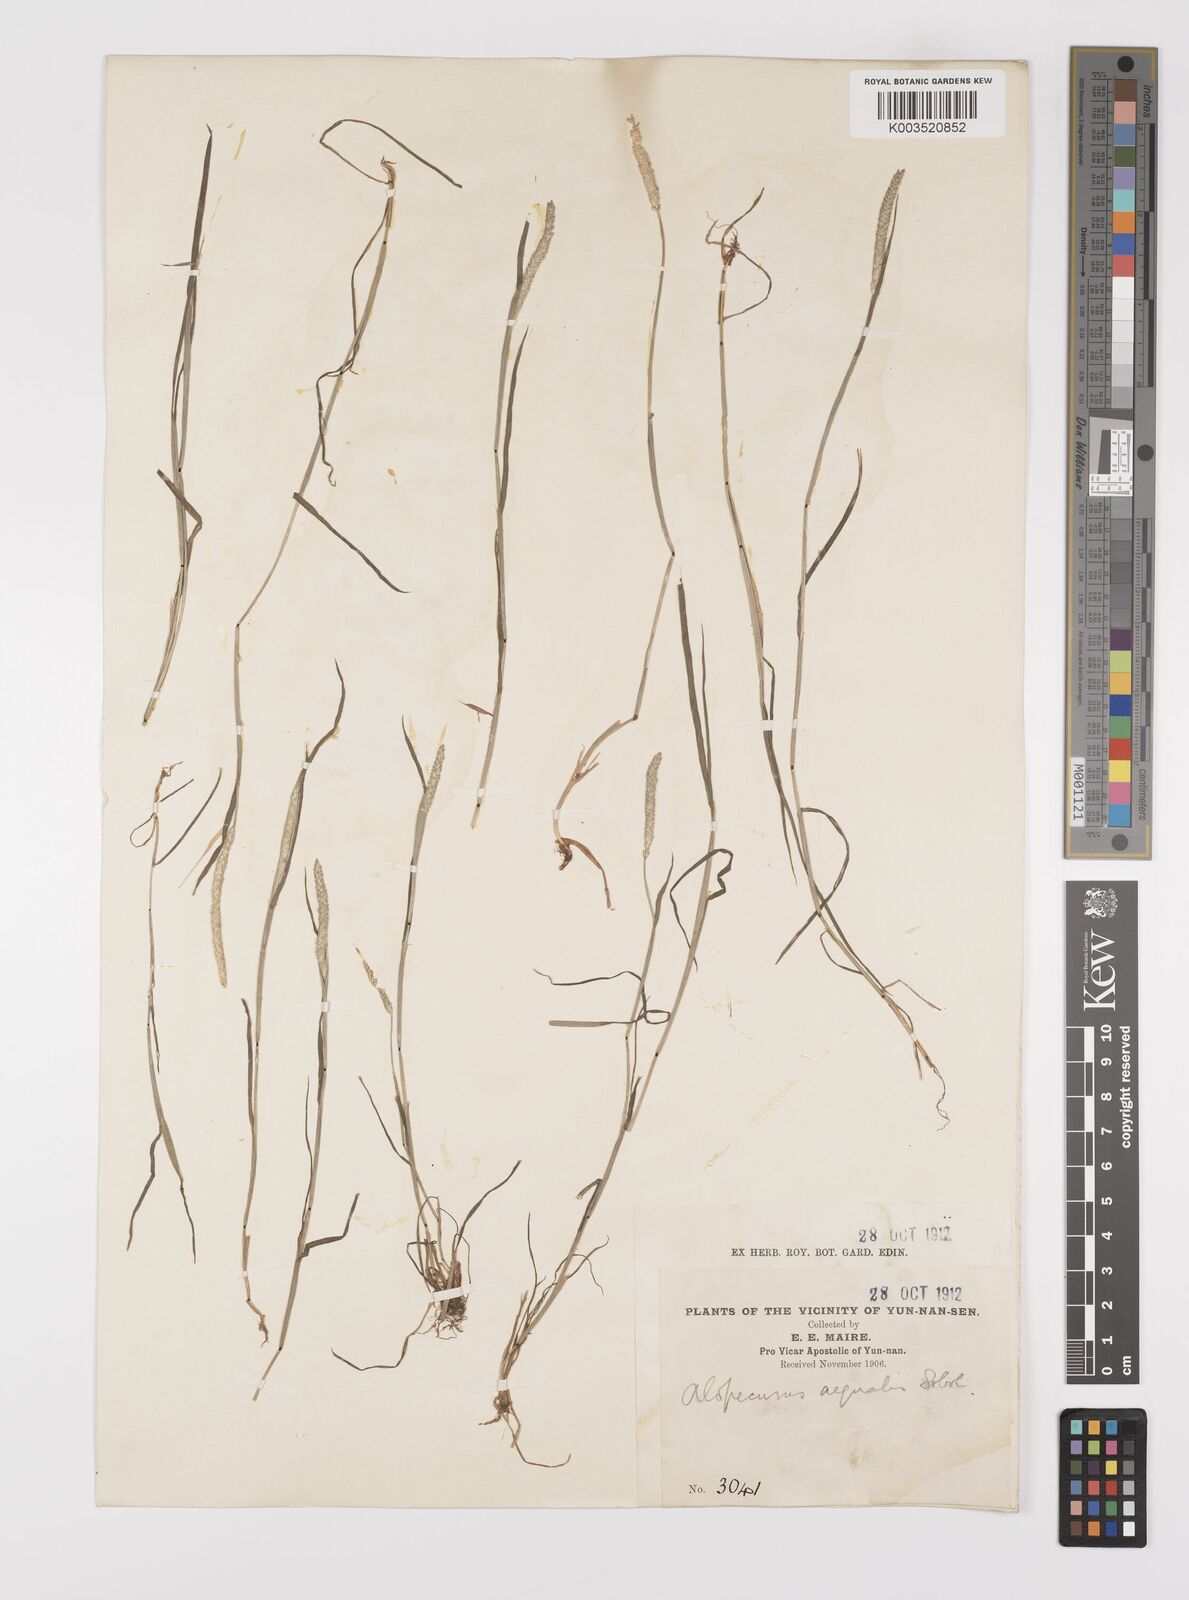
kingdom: Plantae
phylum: Tracheophyta
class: Liliopsida
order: Poales
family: Poaceae
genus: Alopecurus
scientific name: Alopecurus aequalis
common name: Orange foxtail
